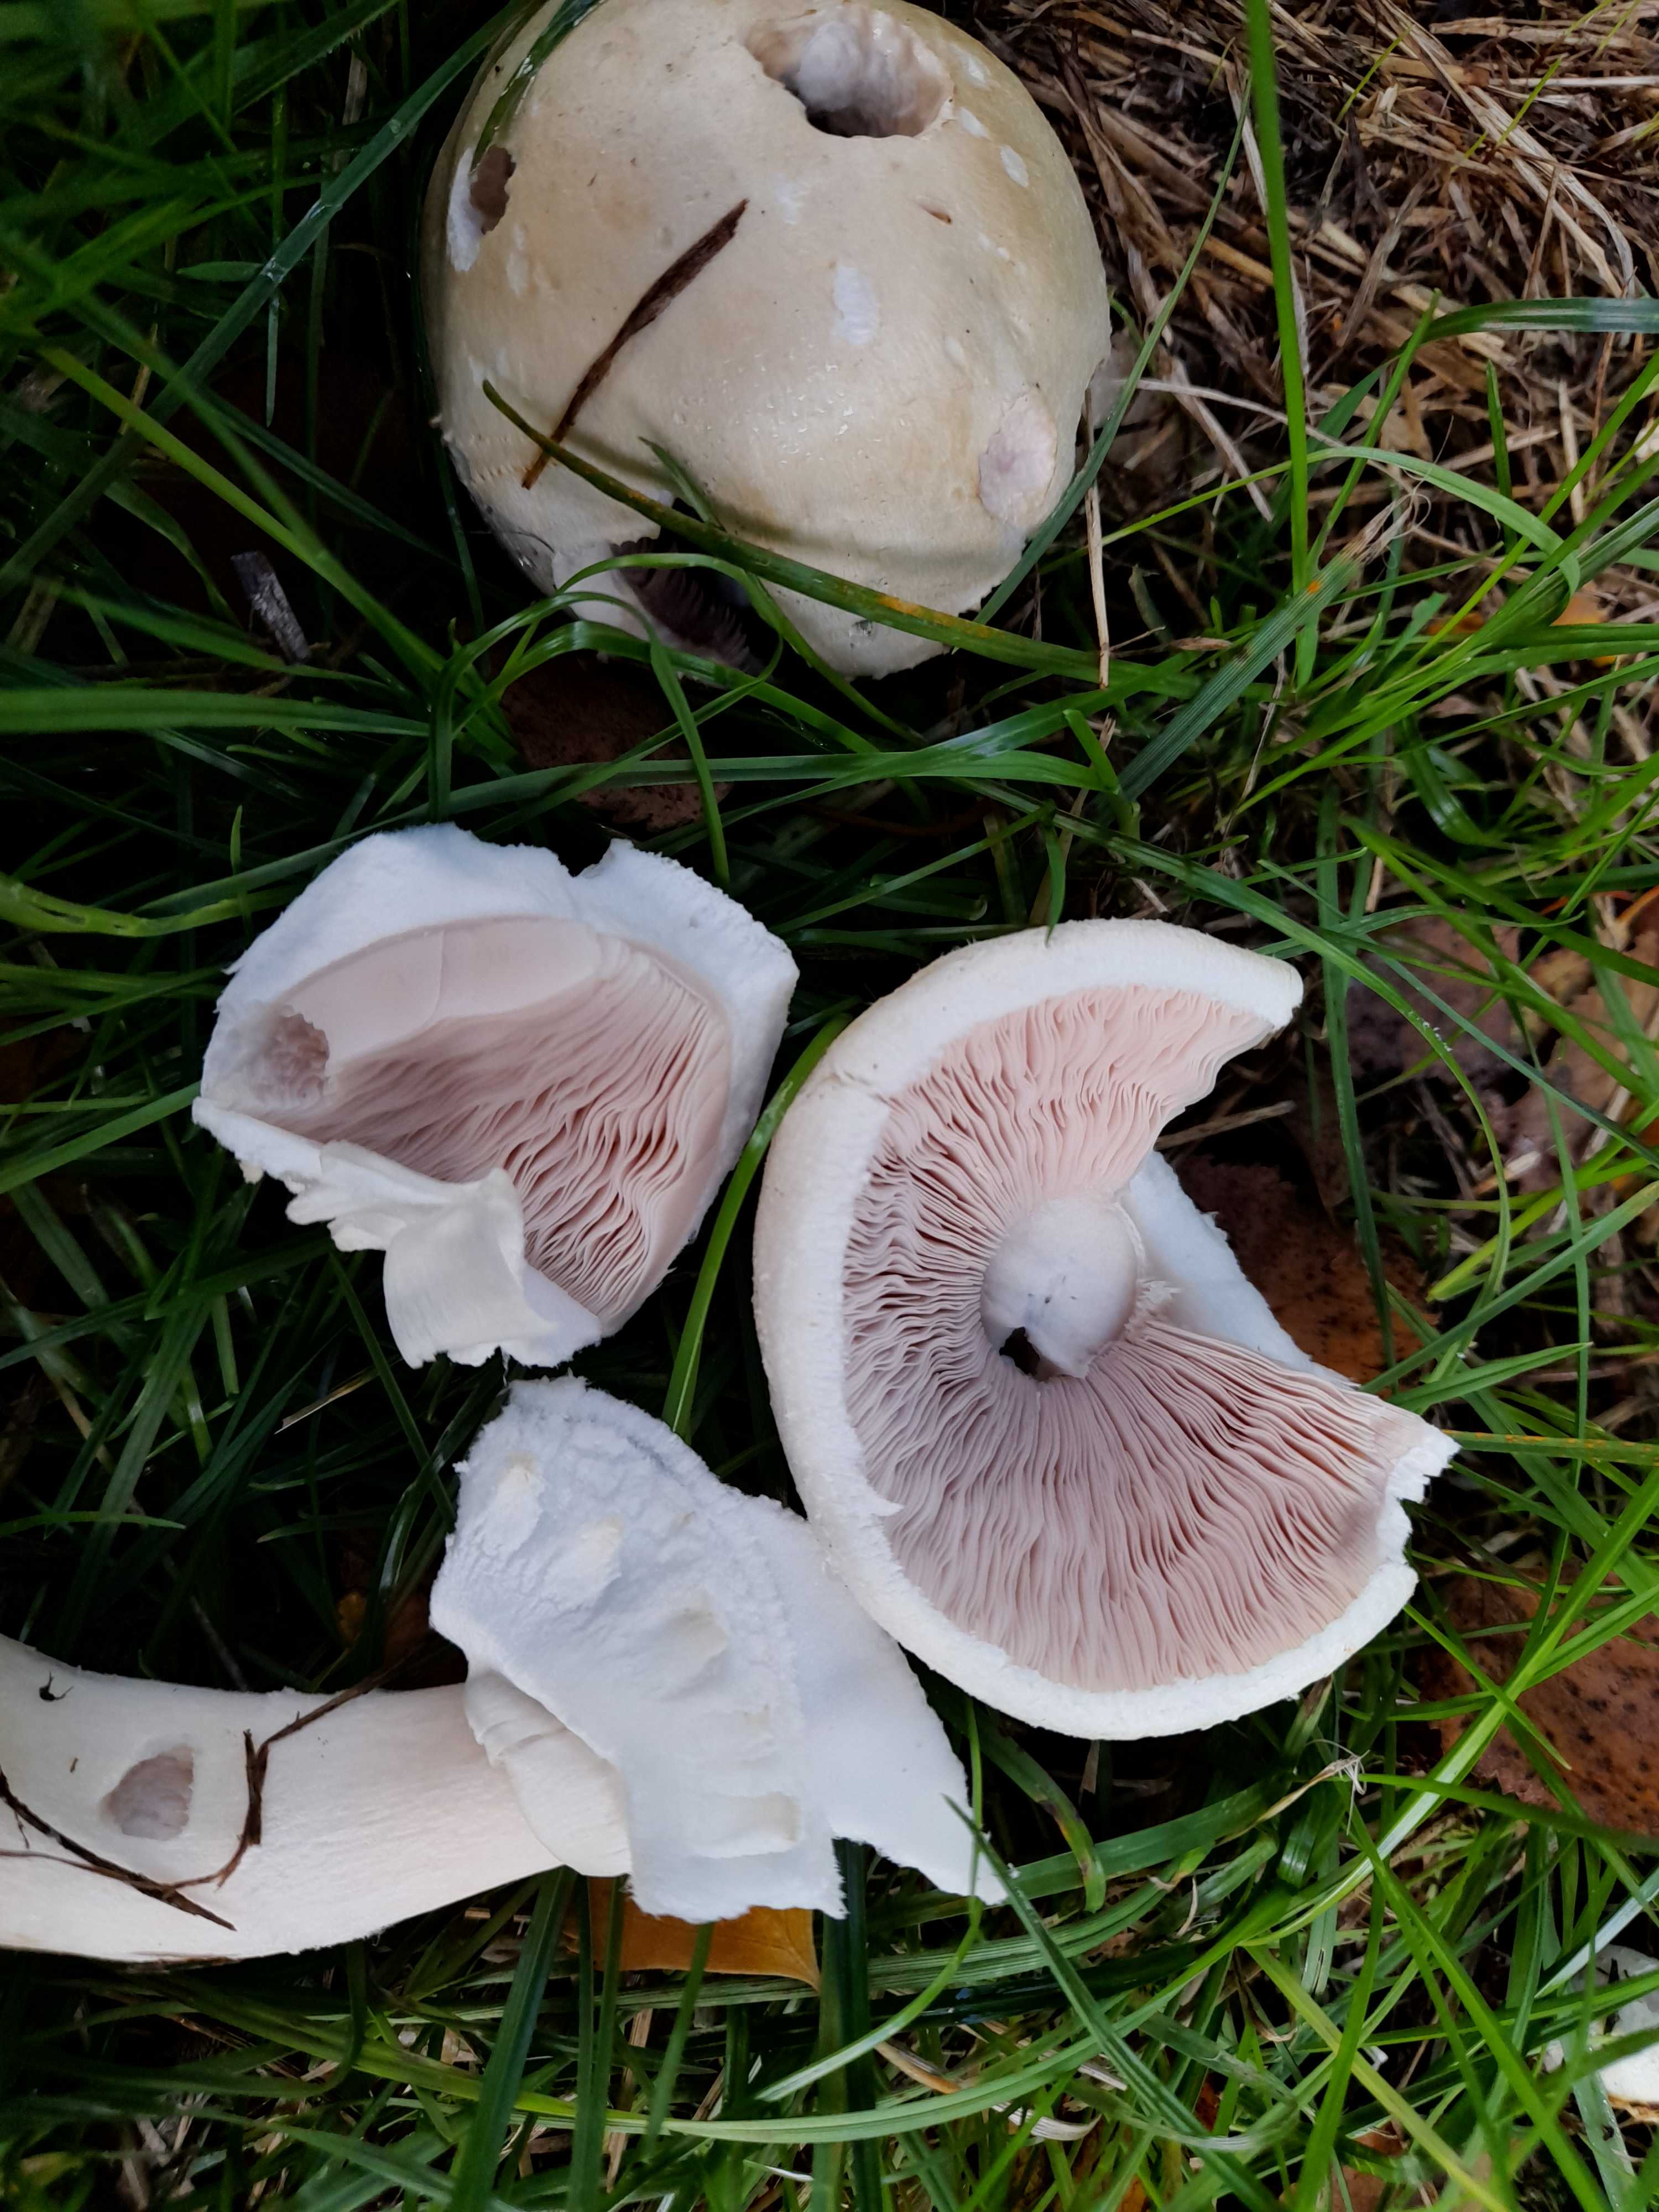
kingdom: Fungi
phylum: Basidiomycota
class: Agaricomycetes
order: Agaricales
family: Agaricaceae
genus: Agaricus
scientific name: Agaricus arvensis
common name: ager-champignon
